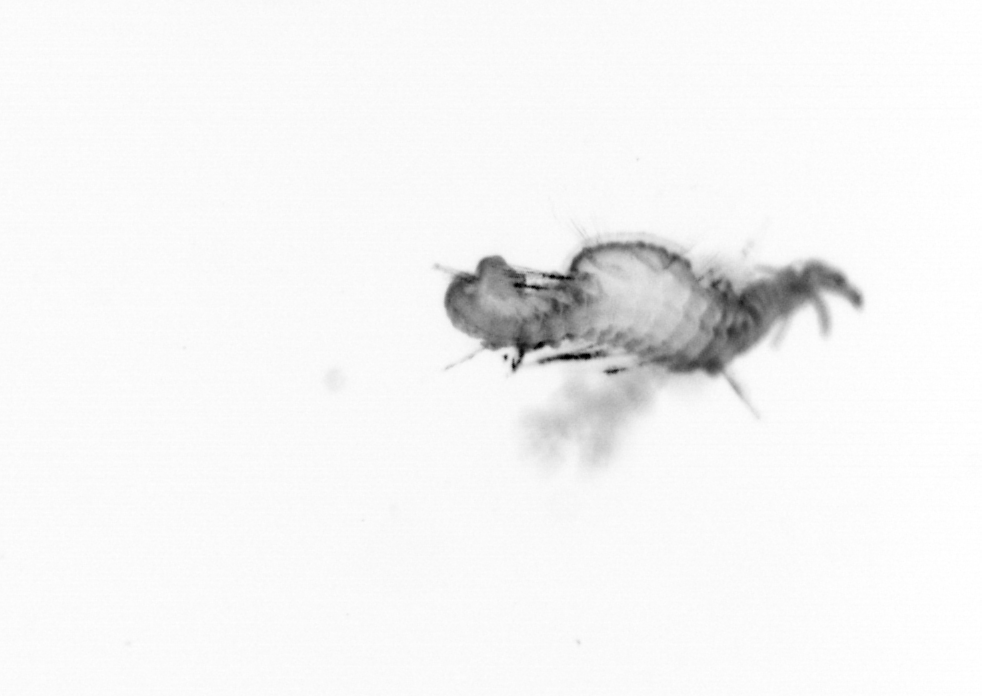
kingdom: Animalia
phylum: Annelida
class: Polychaeta
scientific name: Polychaeta
